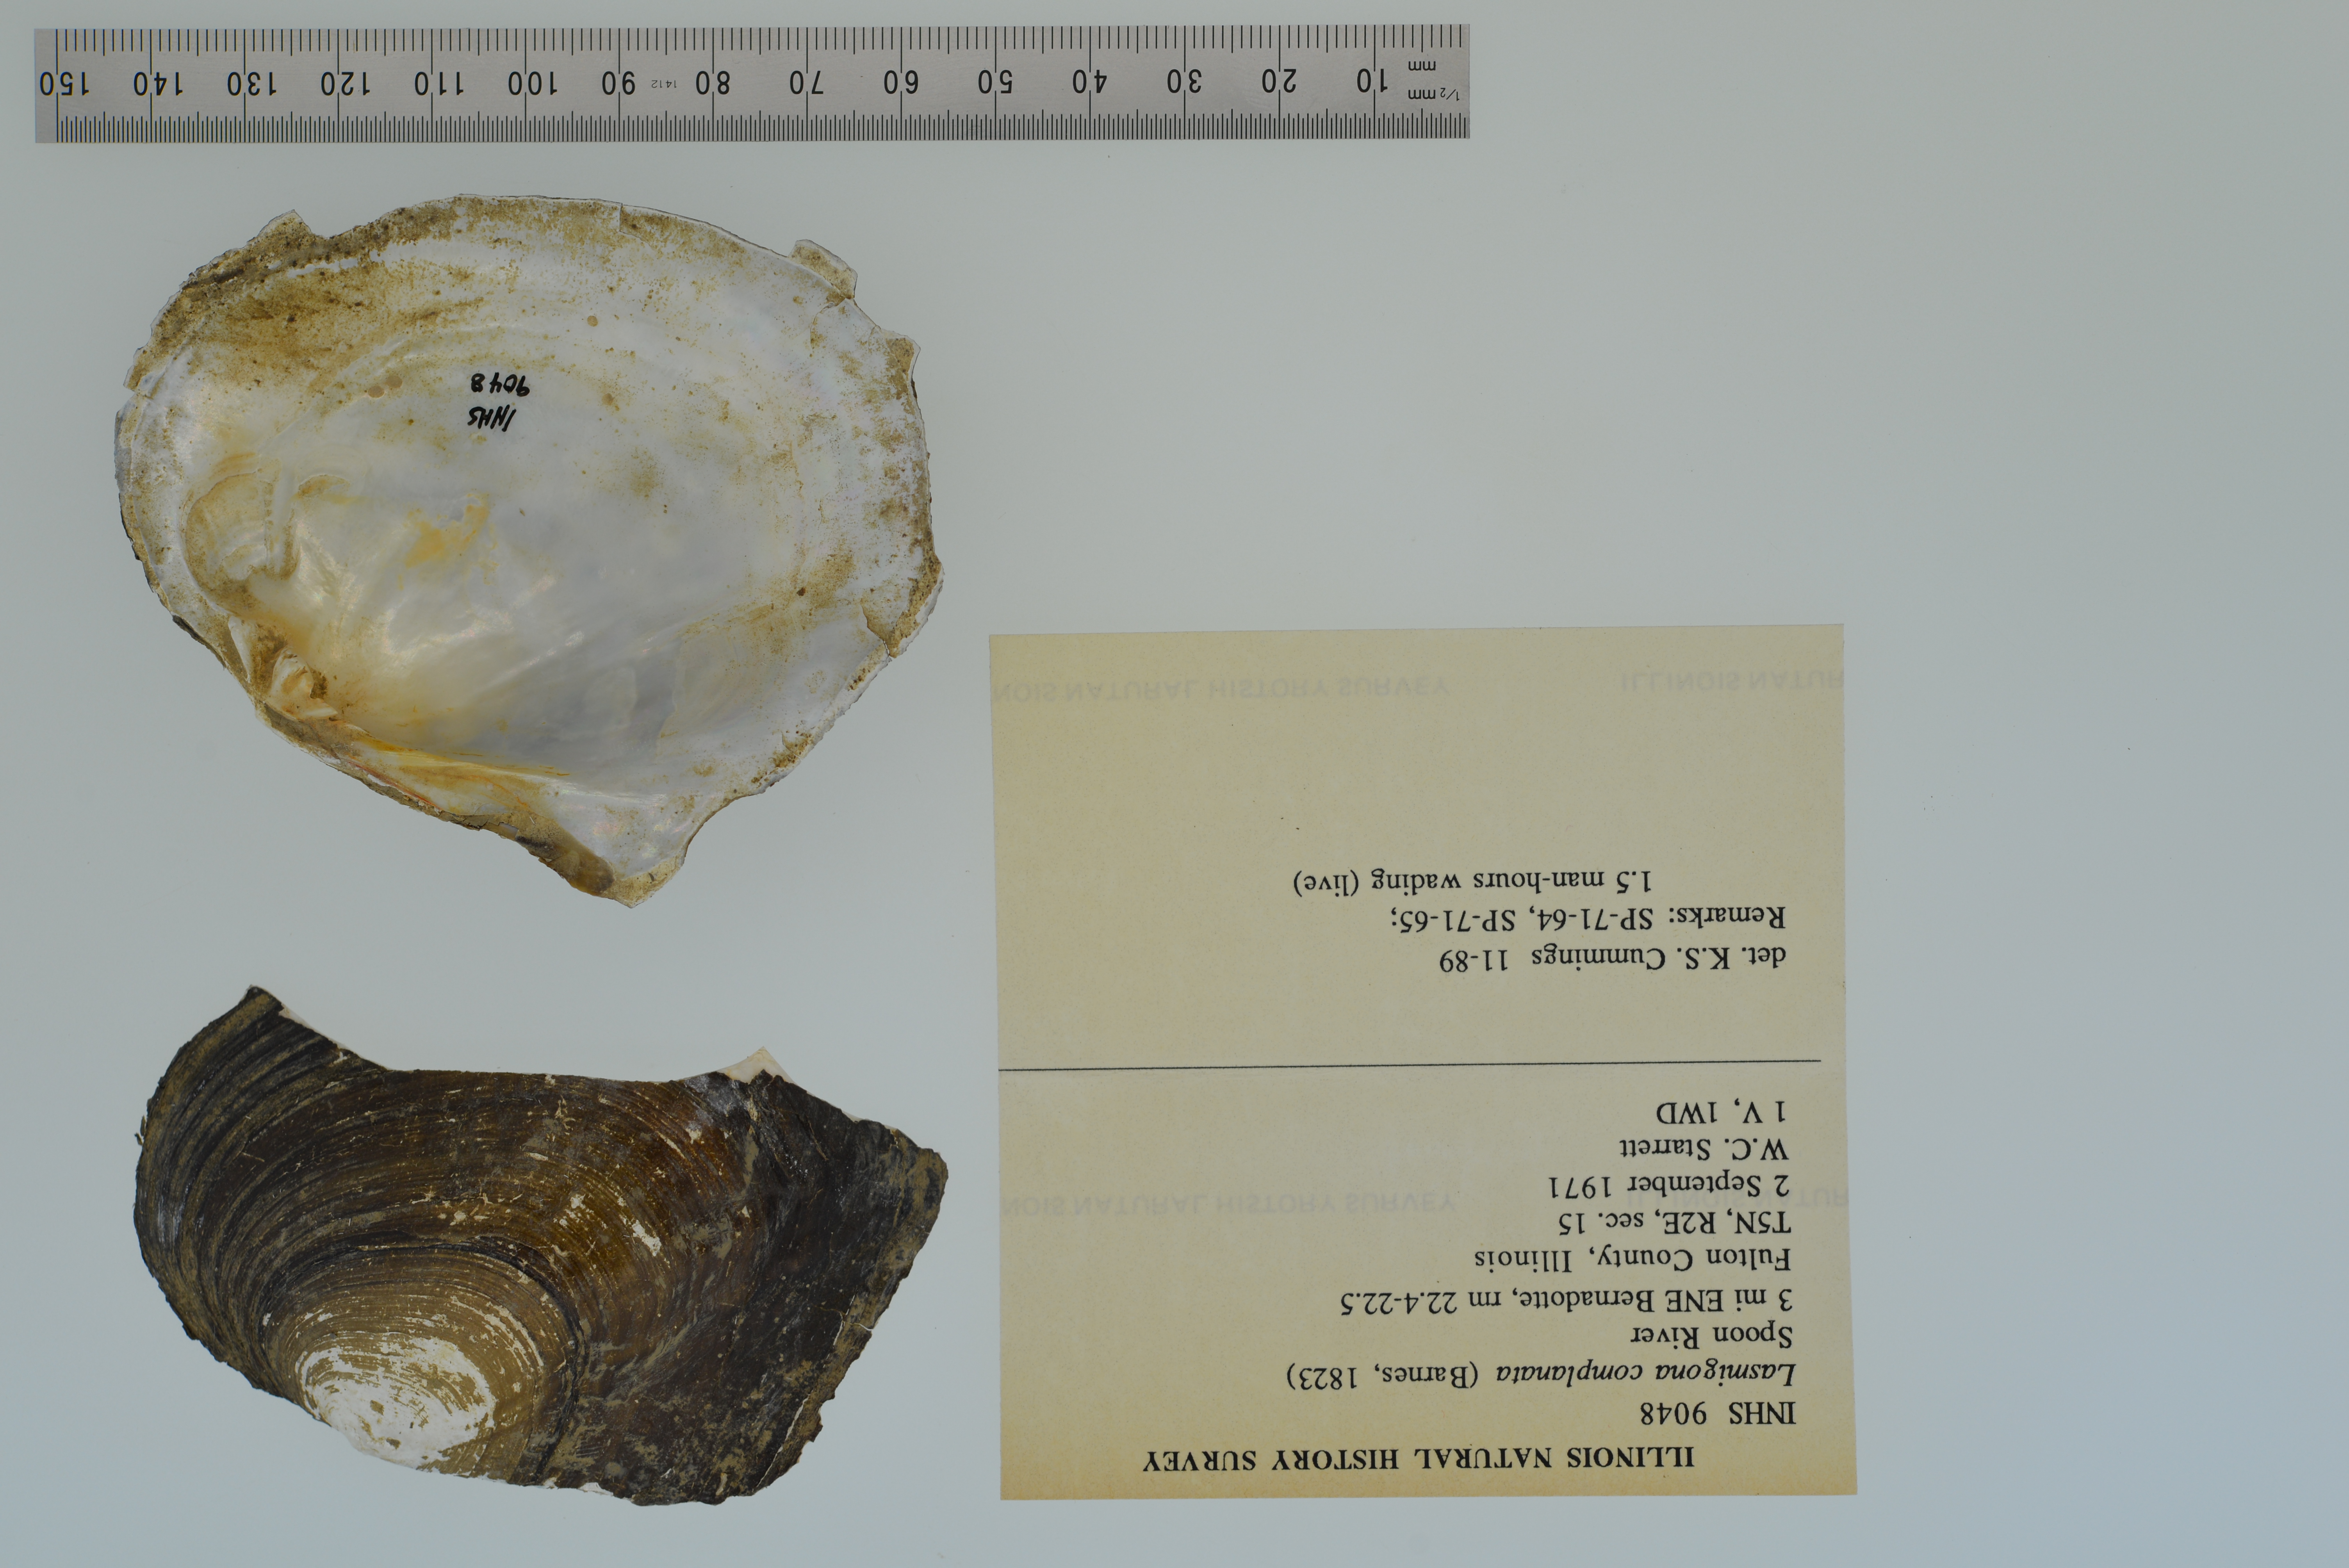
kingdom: Animalia
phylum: Mollusca
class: Bivalvia
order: Unionida
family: Unionidae
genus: Lasmigona
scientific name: Lasmigona complanata
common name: White heelsplitter
